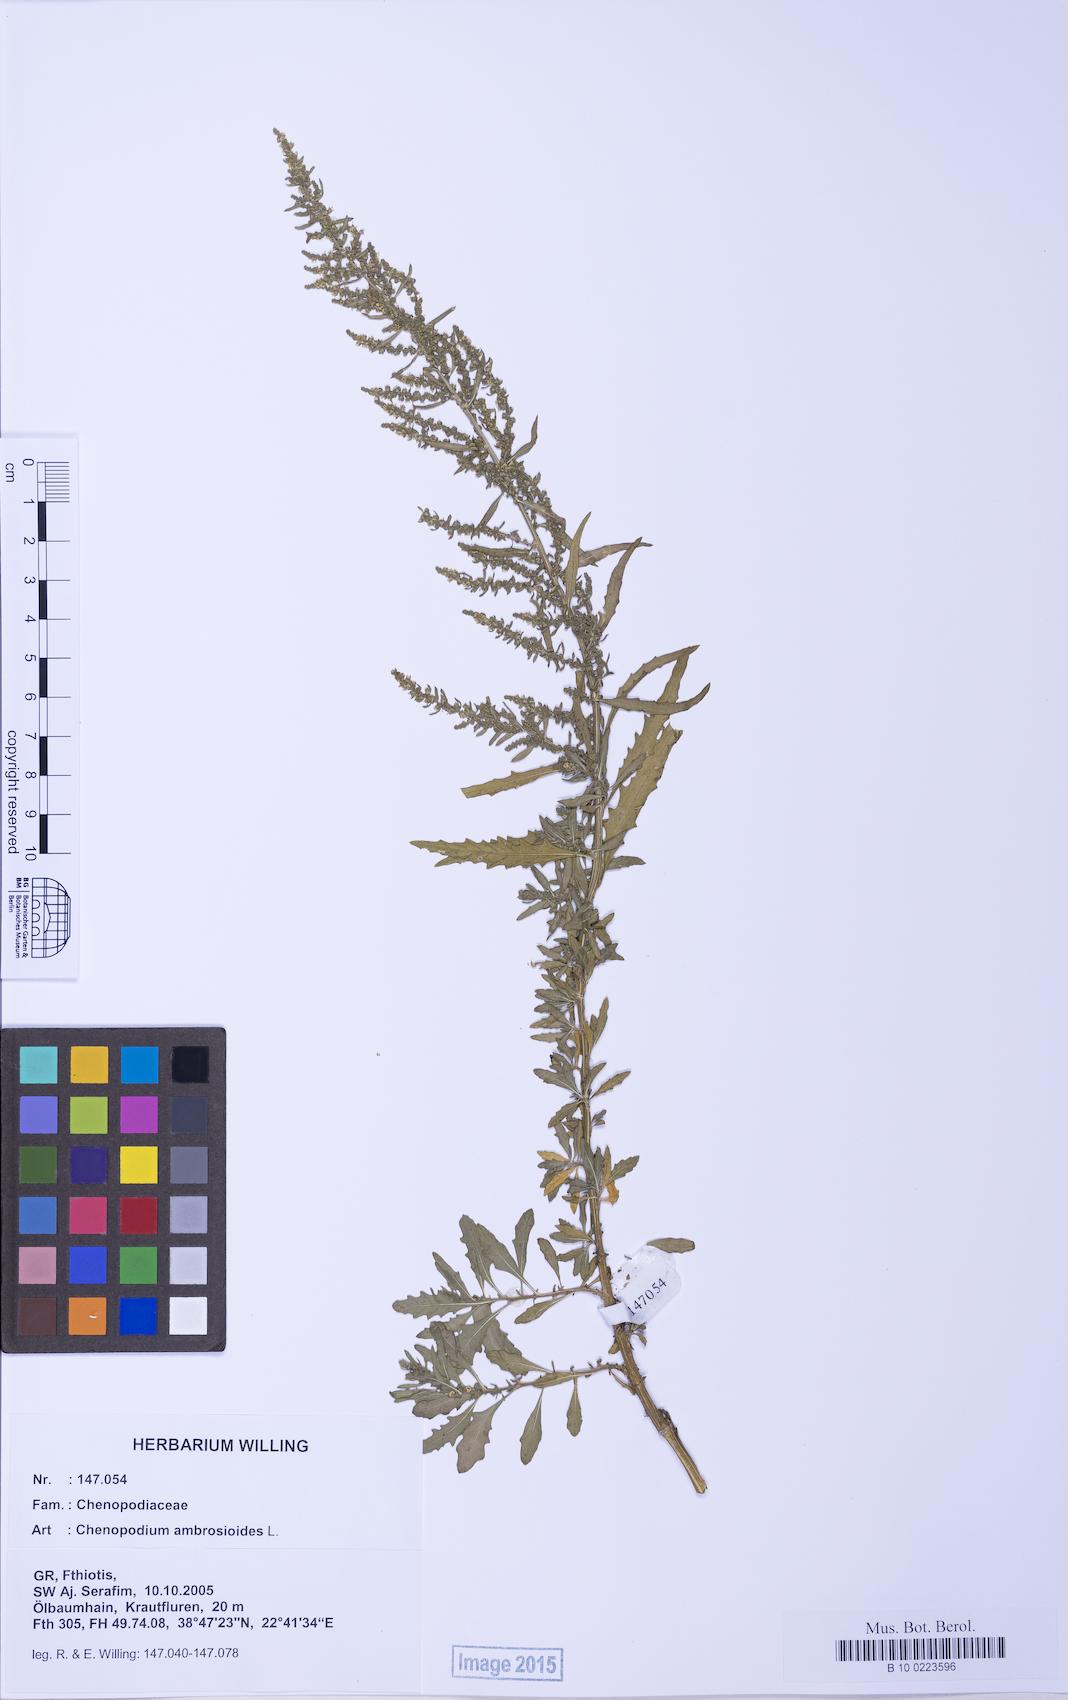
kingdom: Plantae
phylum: Tracheophyta
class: Magnoliopsida
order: Caryophyllales
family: Amaranthaceae
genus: Dysphania
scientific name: Dysphania ambrosioides
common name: Wormseed
